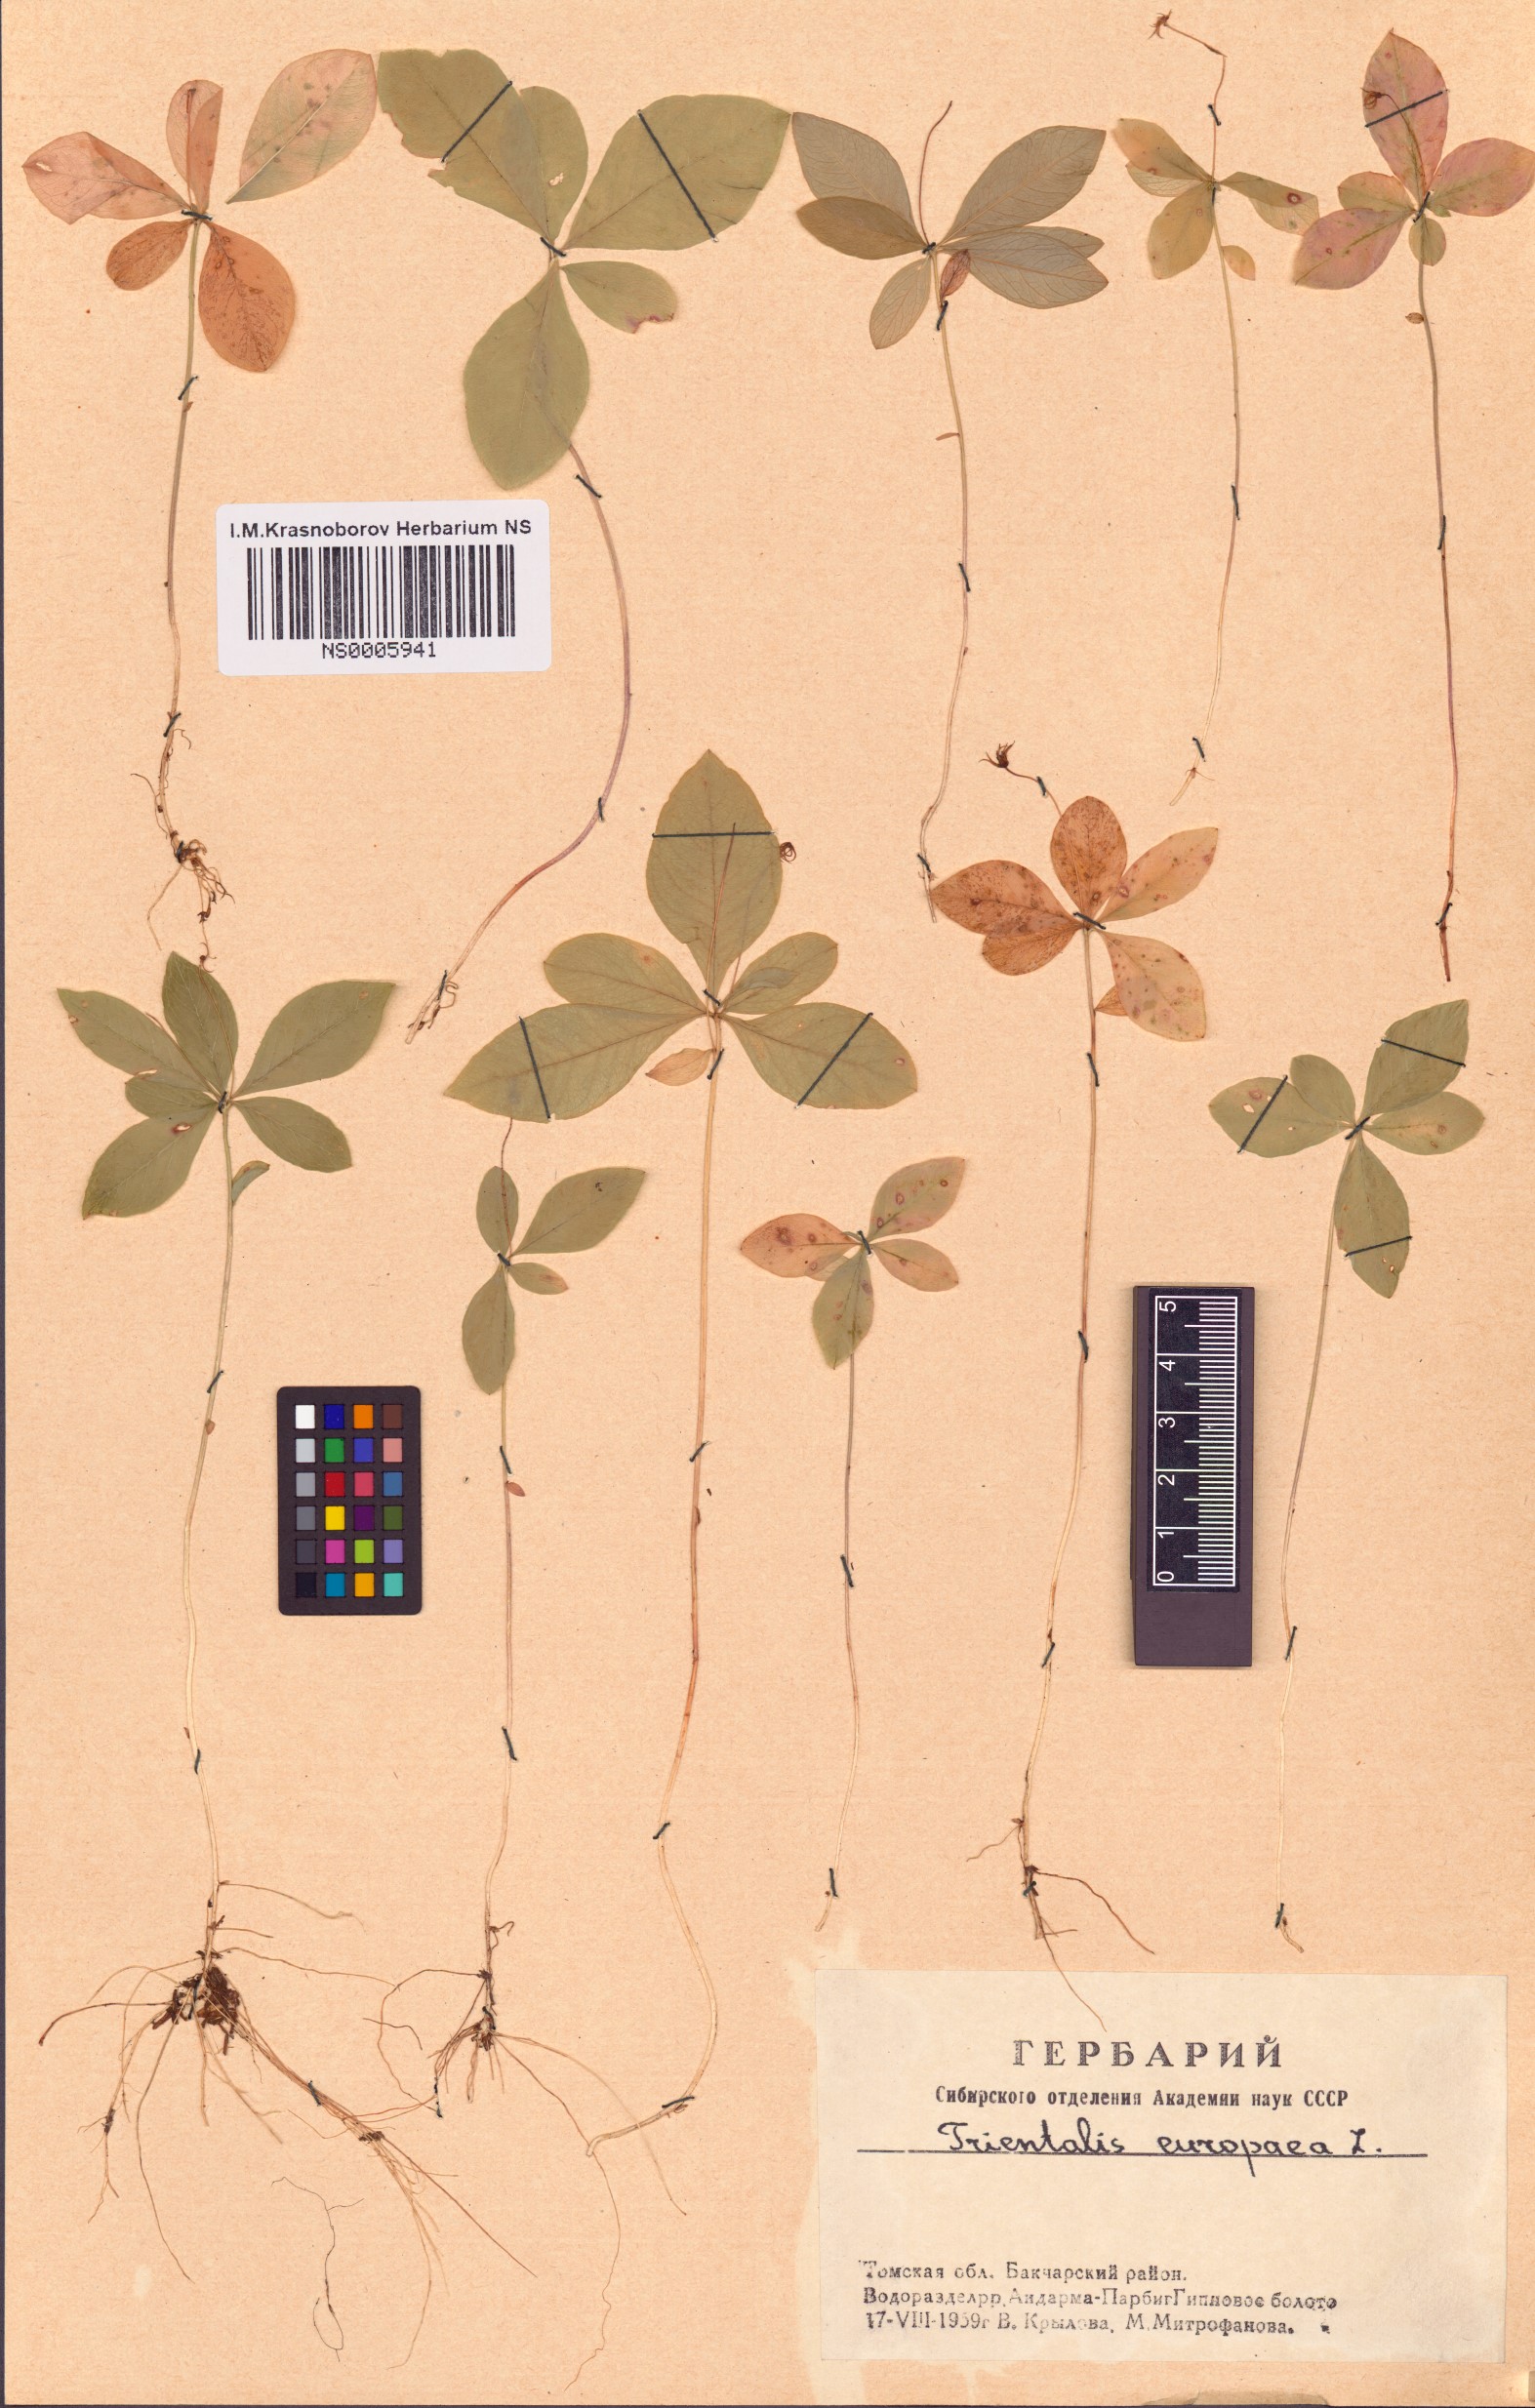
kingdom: Plantae
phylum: Tracheophyta
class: Magnoliopsida
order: Ericales
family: Primulaceae
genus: Lysimachia
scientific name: Lysimachia europaea
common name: Arctic starflower
